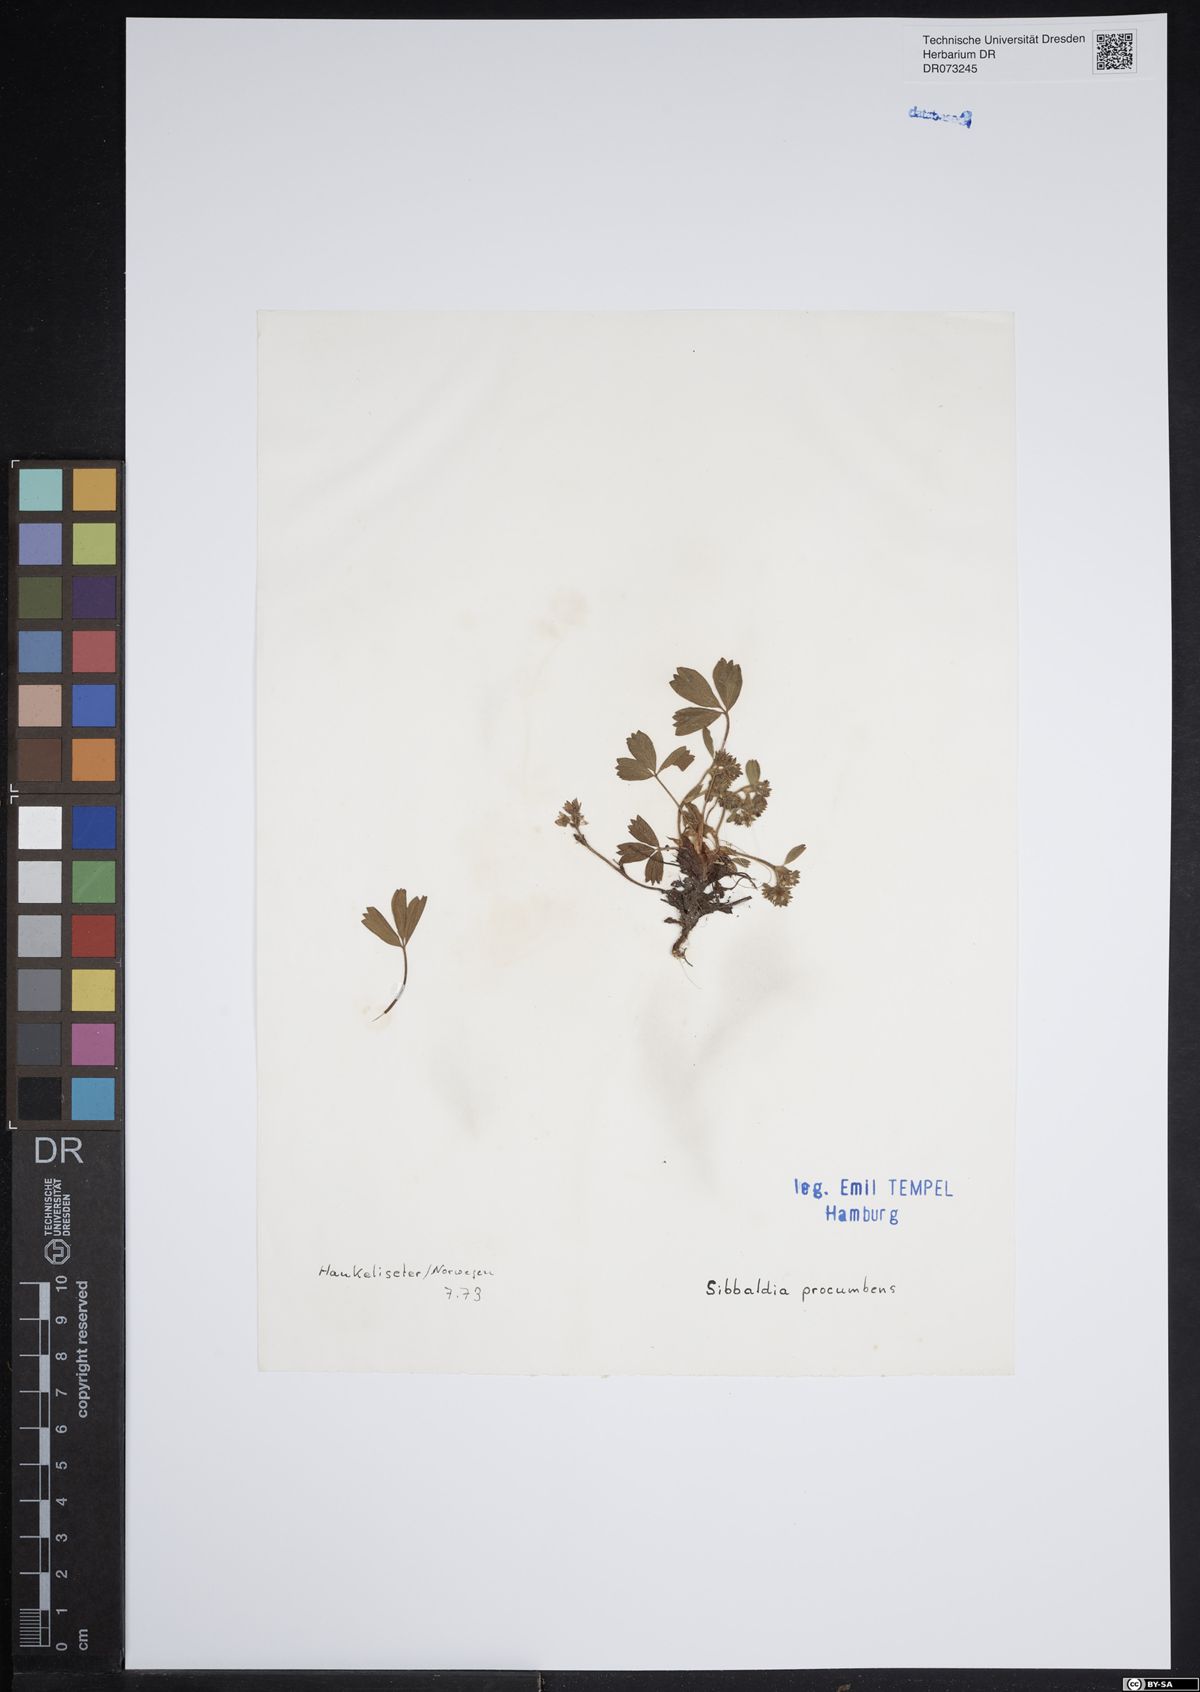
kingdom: Plantae
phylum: Tracheophyta
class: Magnoliopsida
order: Rosales
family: Rosaceae
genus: Sibbaldia
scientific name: Sibbaldia procumbens
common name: Creeping sibbaldia
